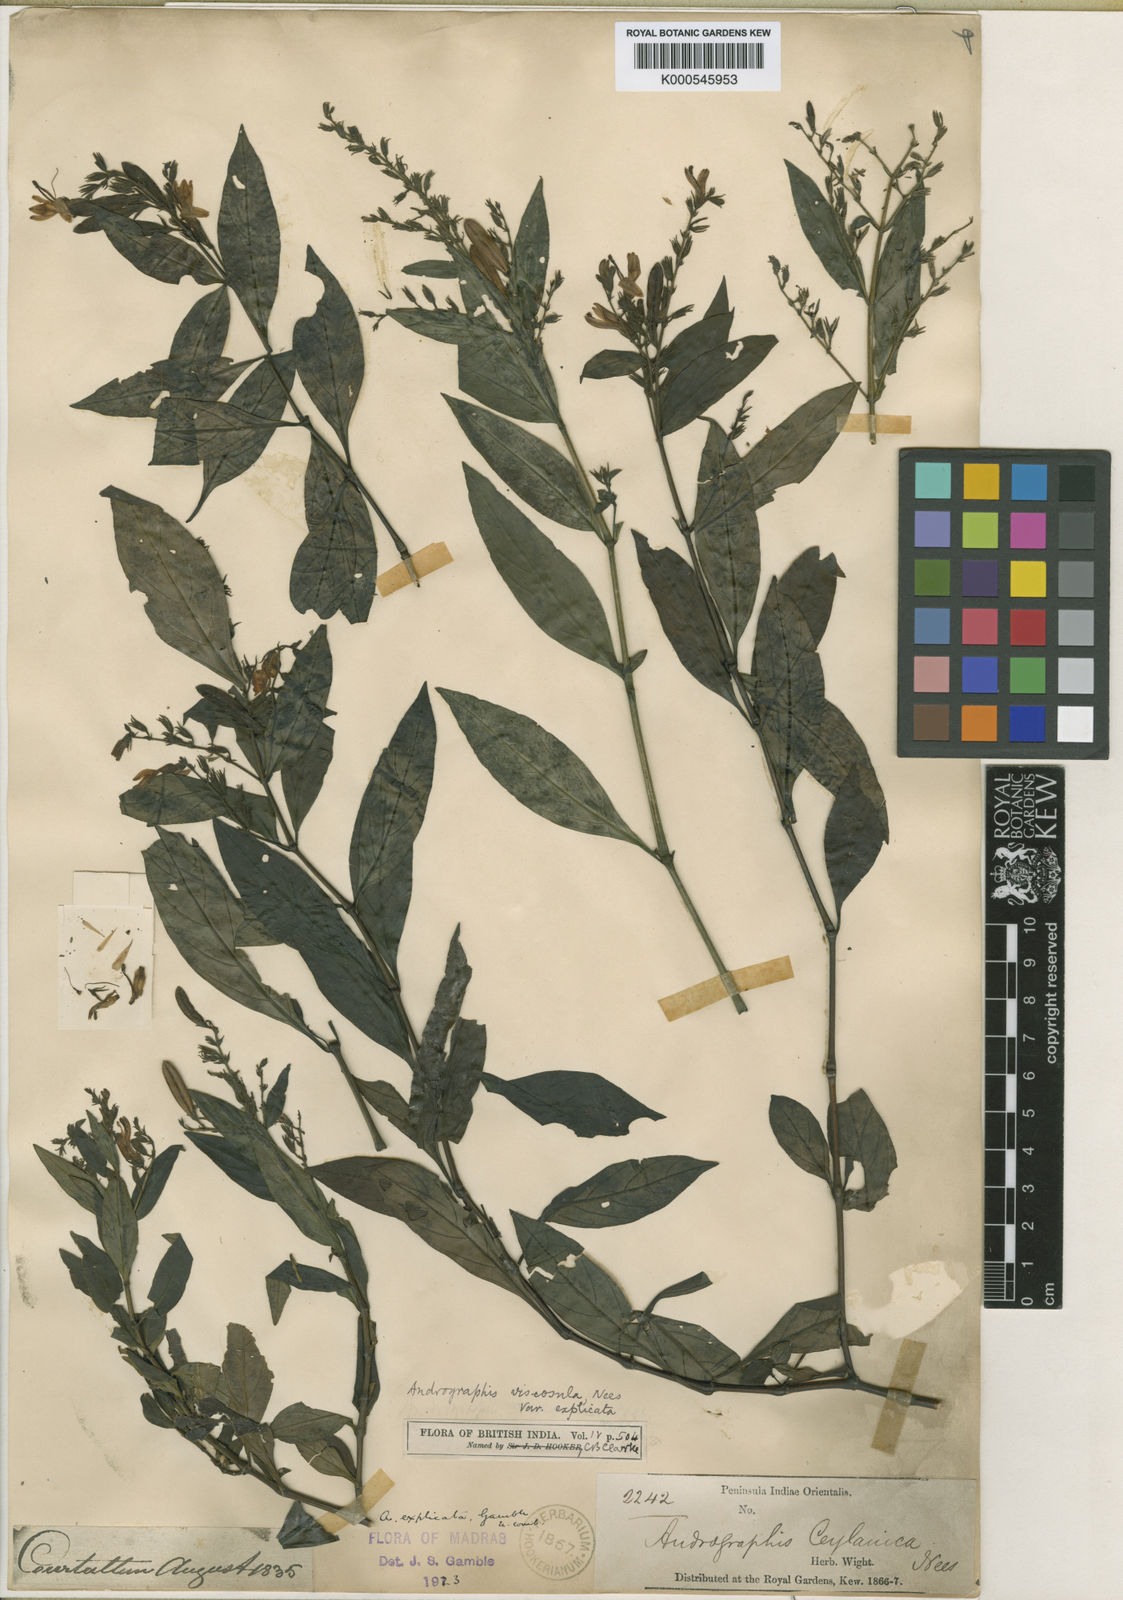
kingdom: Plantae
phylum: Tracheophyta
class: Magnoliopsida
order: Lamiales
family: Acanthaceae
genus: Andrographis
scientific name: Andrographis viscosula
